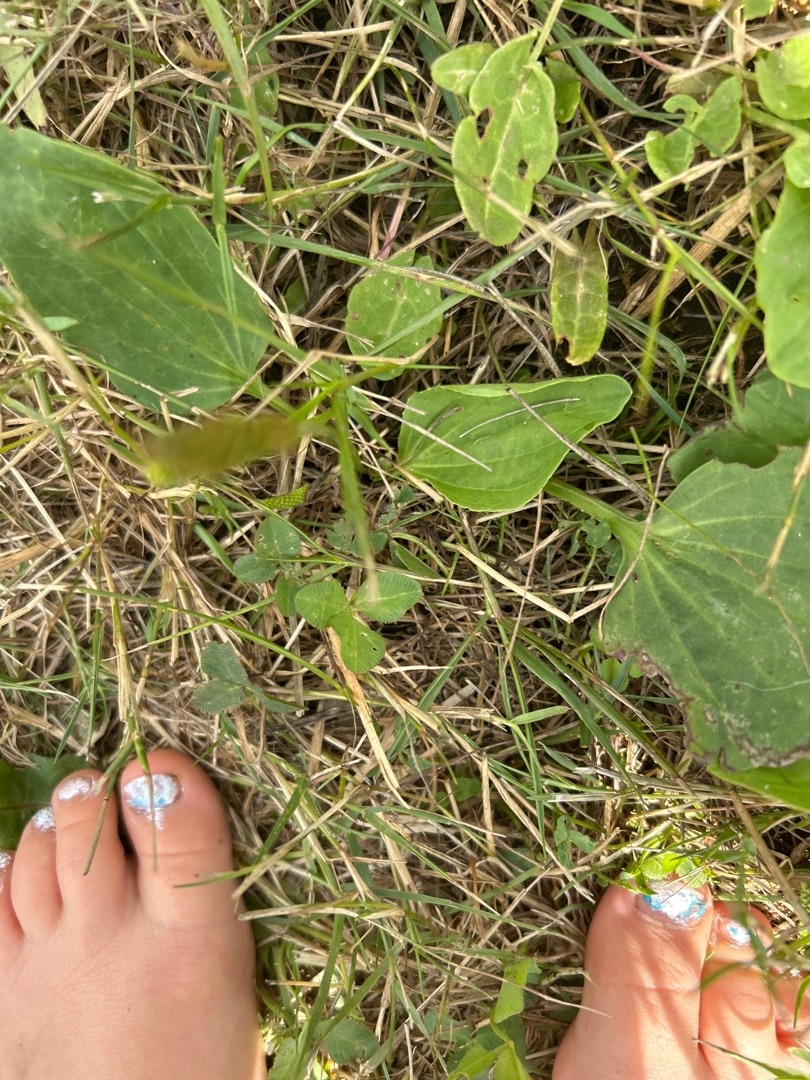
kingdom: Plantae
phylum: Tracheophyta
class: Magnoliopsida
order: Lamiales
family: Plantaginaceae
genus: Plantago
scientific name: Plantago major
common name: Glat vejbred
